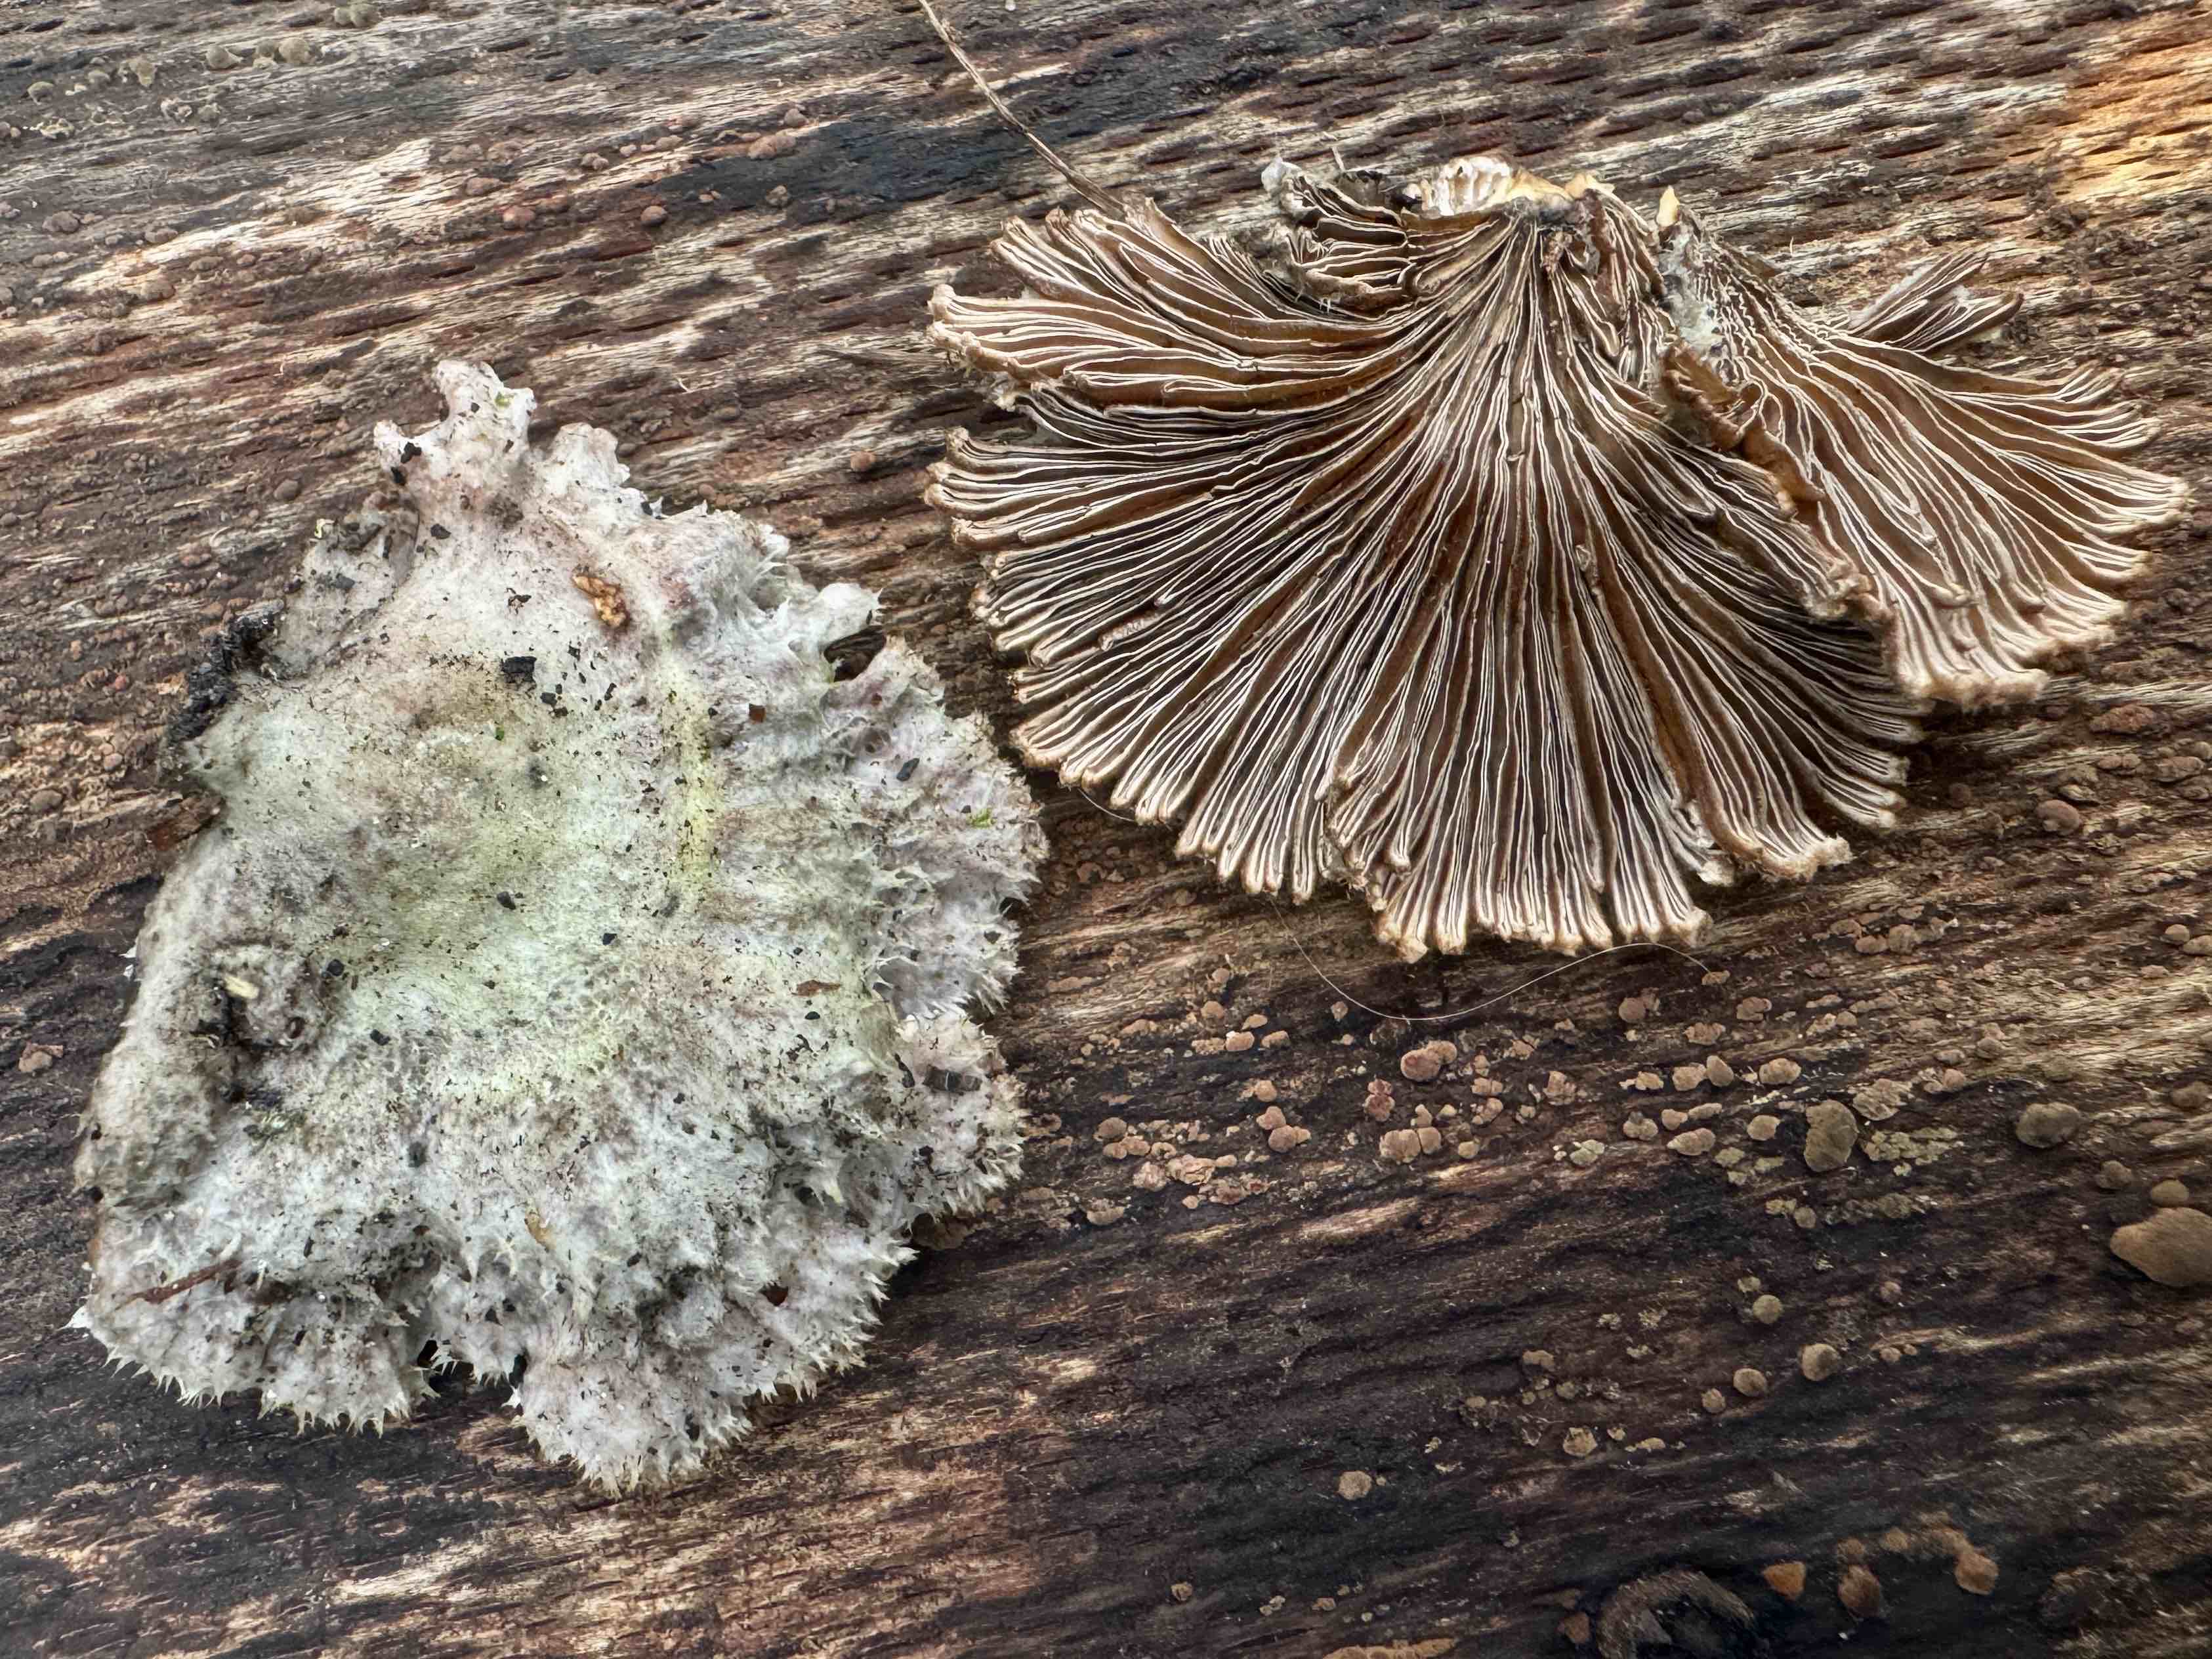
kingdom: Fungi
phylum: Basidiomycota
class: Agaricomycetes
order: Agaricales
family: Schizophyllaceae
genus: Schizophyllum
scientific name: Schizophyllum commune
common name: kløvblad
